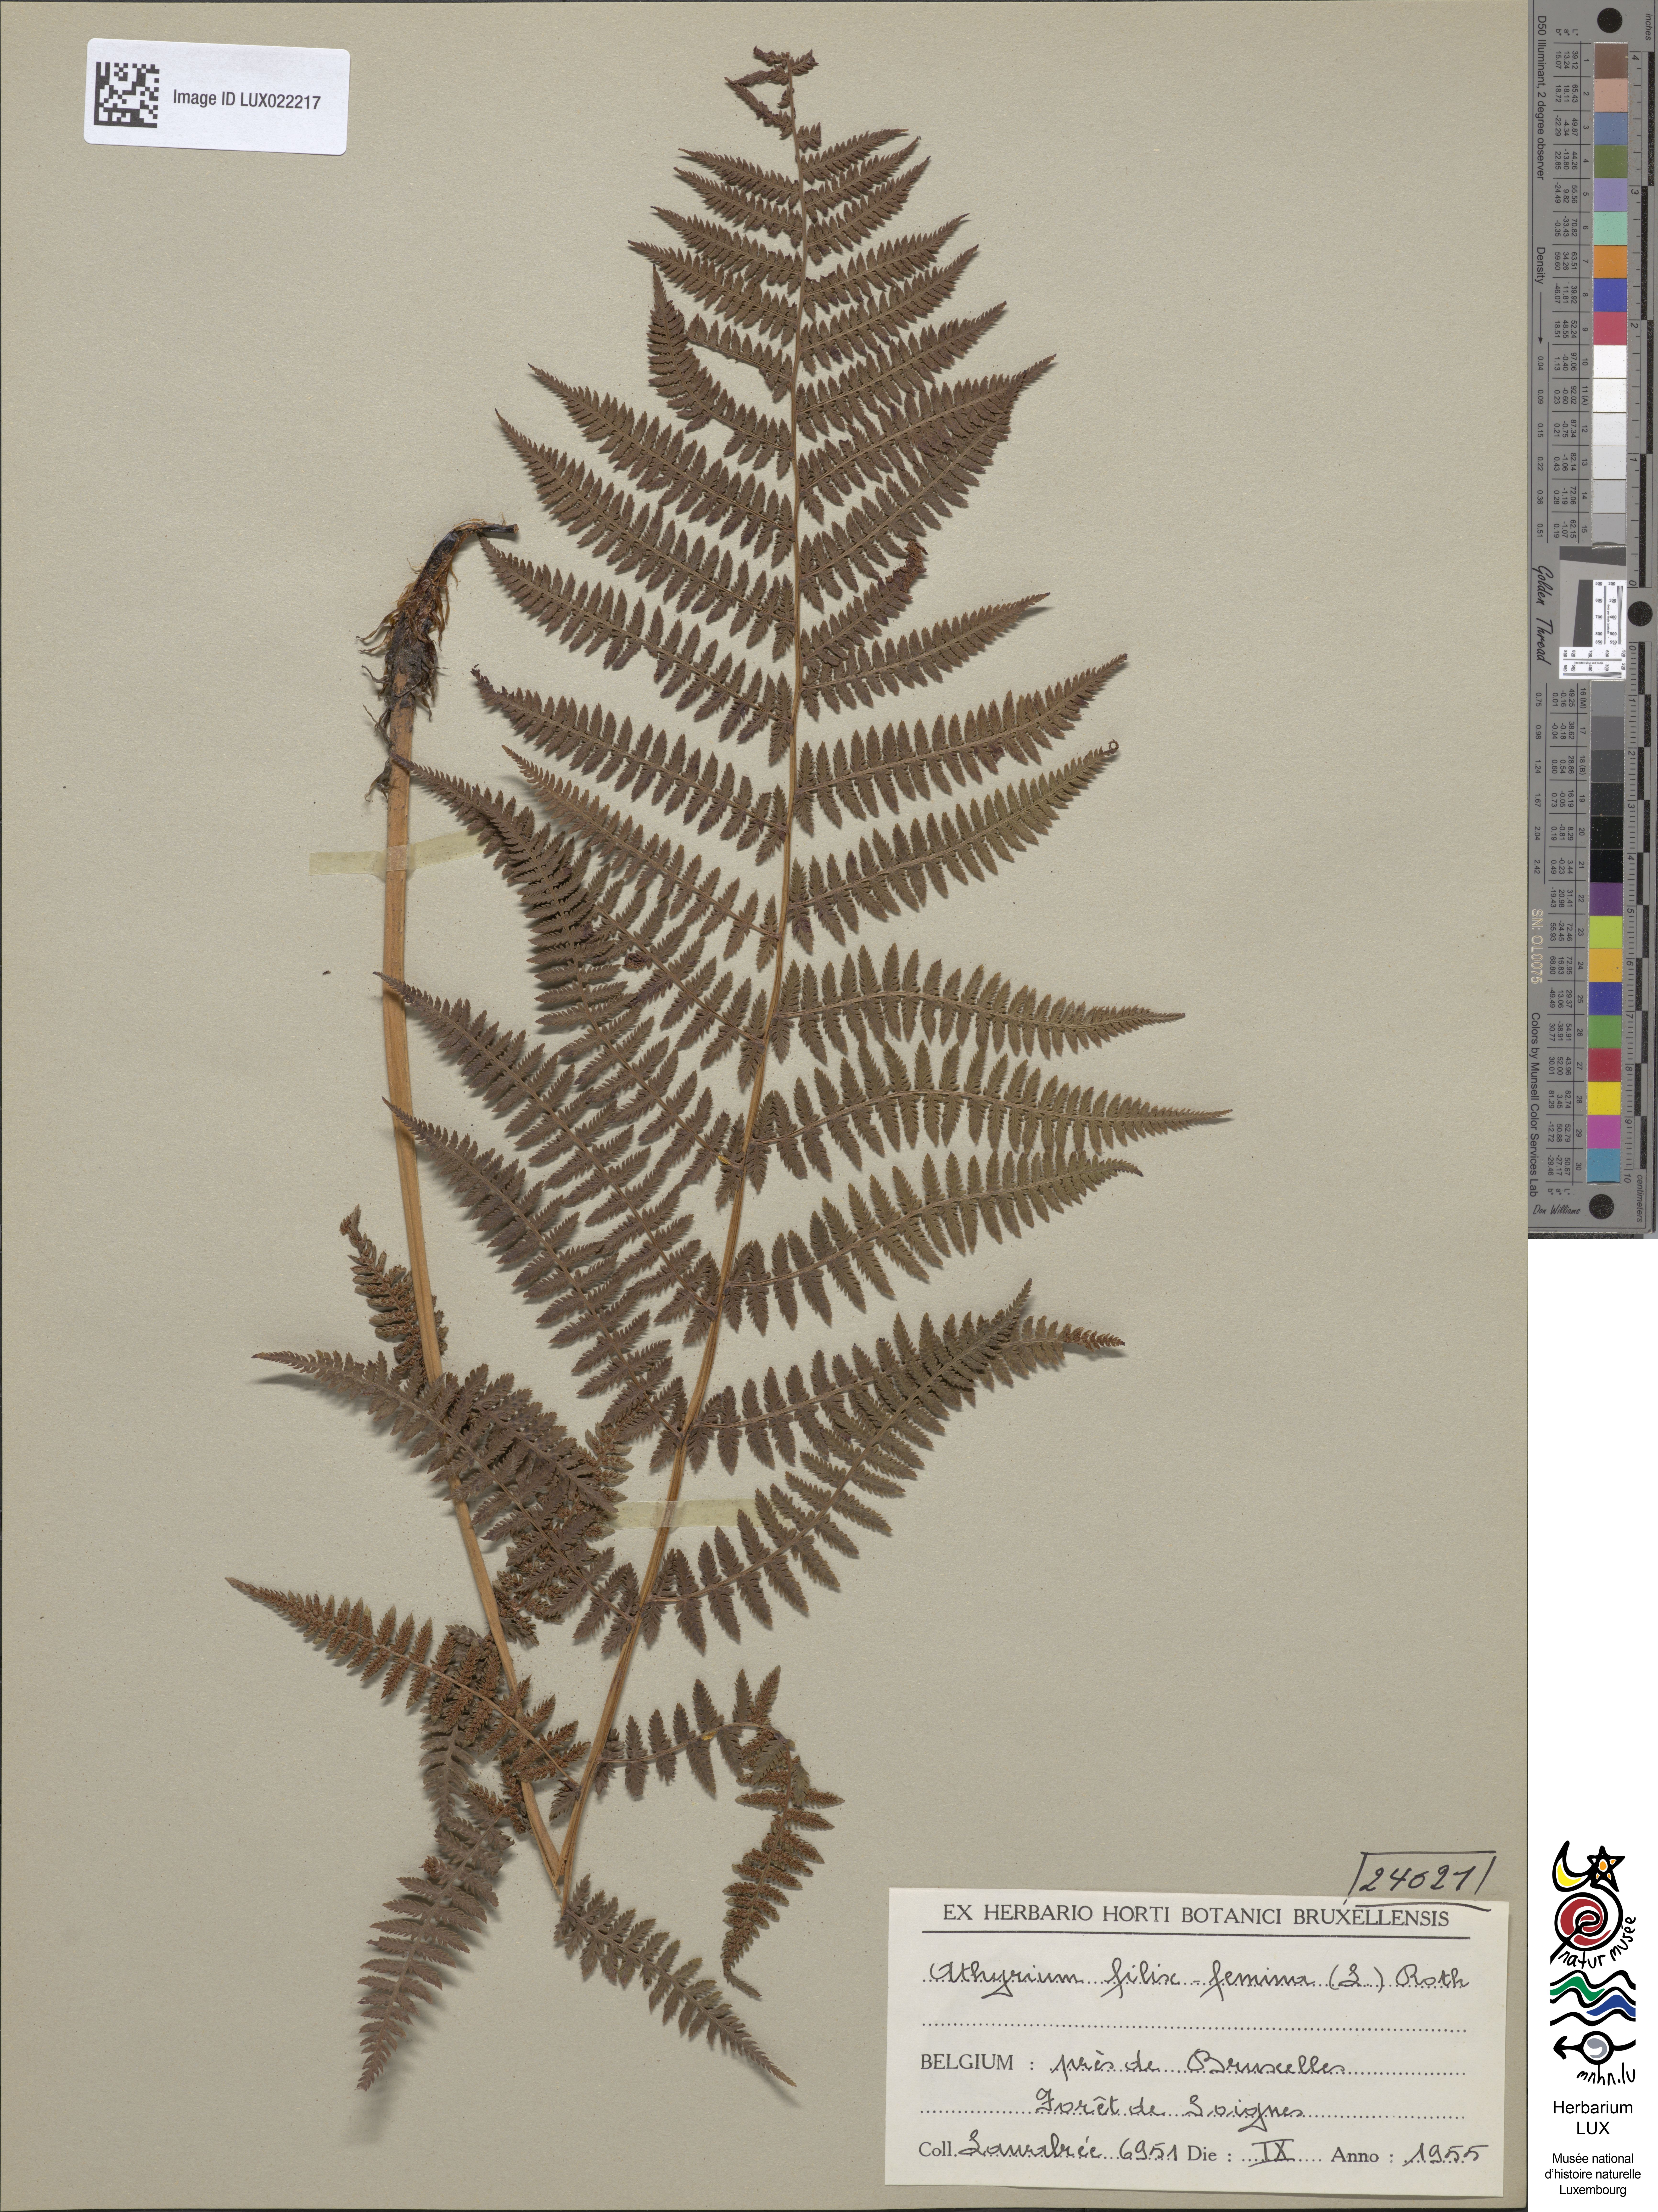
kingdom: Plantae
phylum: Tracheophyta
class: Polypodiopsida
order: Polypodiales
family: Athyriaceae
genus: Athyrium
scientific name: Athyrium filix-femina
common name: Lady fern
